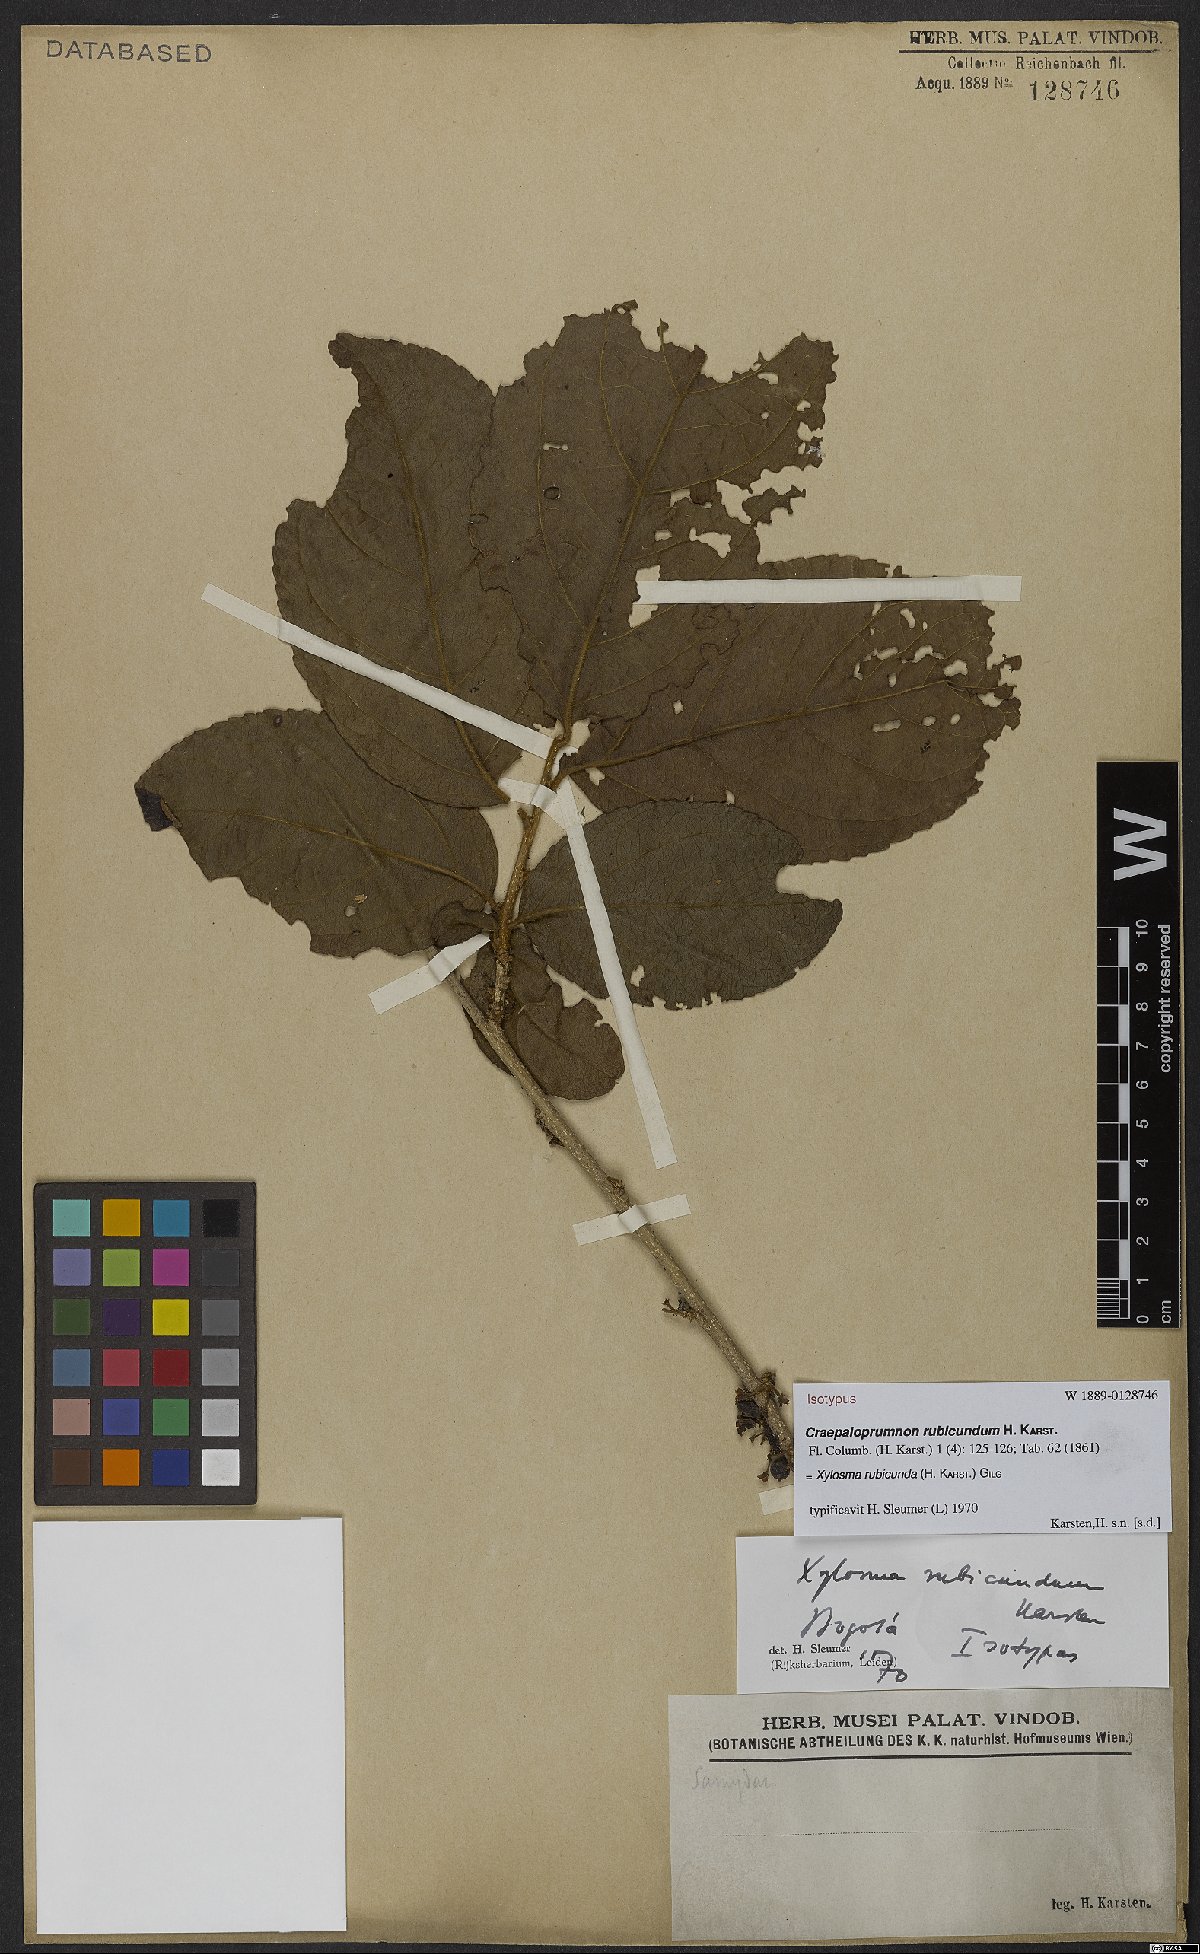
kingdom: Plantae
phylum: Tracheophyta
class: Magnoliopsida
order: Malpighiales
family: Salicaceae
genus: Xylosma
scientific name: Xylosma rubicundum
